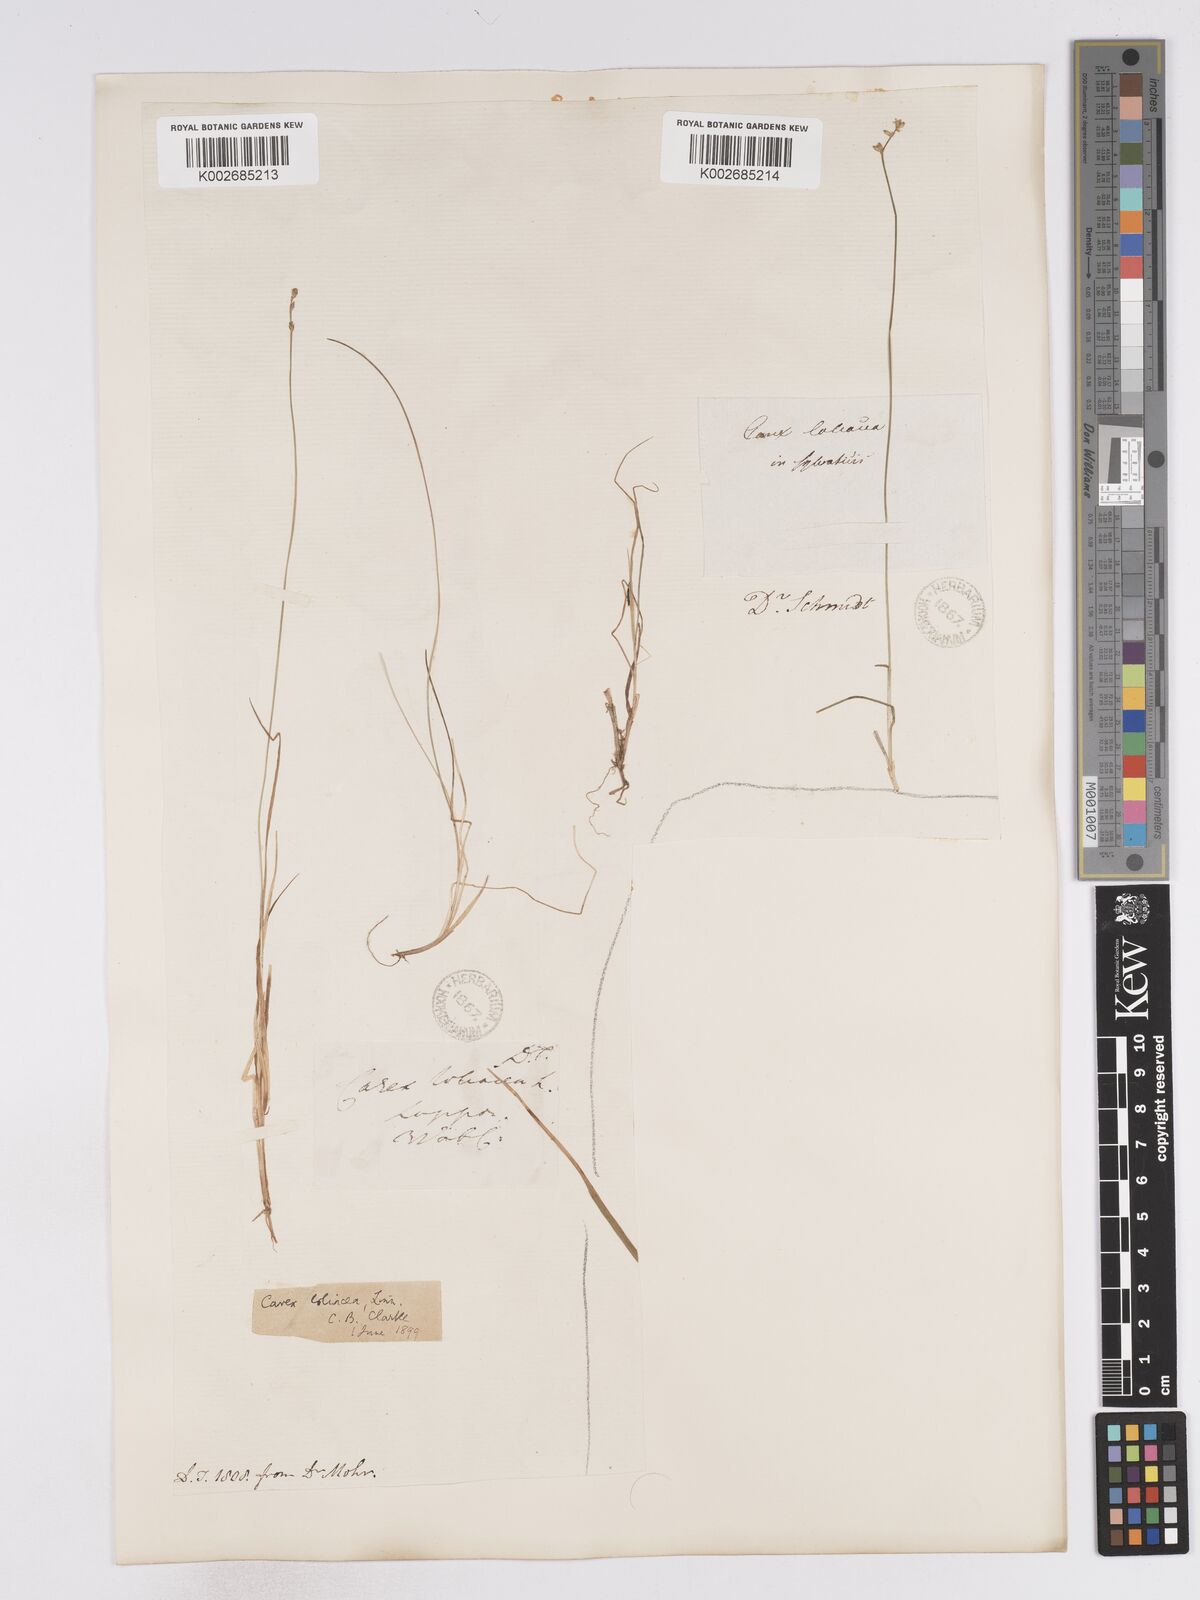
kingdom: Plantae
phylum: Tracheophyta
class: Liliopsida
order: Poales
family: Cyperaceae
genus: Carex
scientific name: Carex loliacea
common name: Ryegrass sedge
